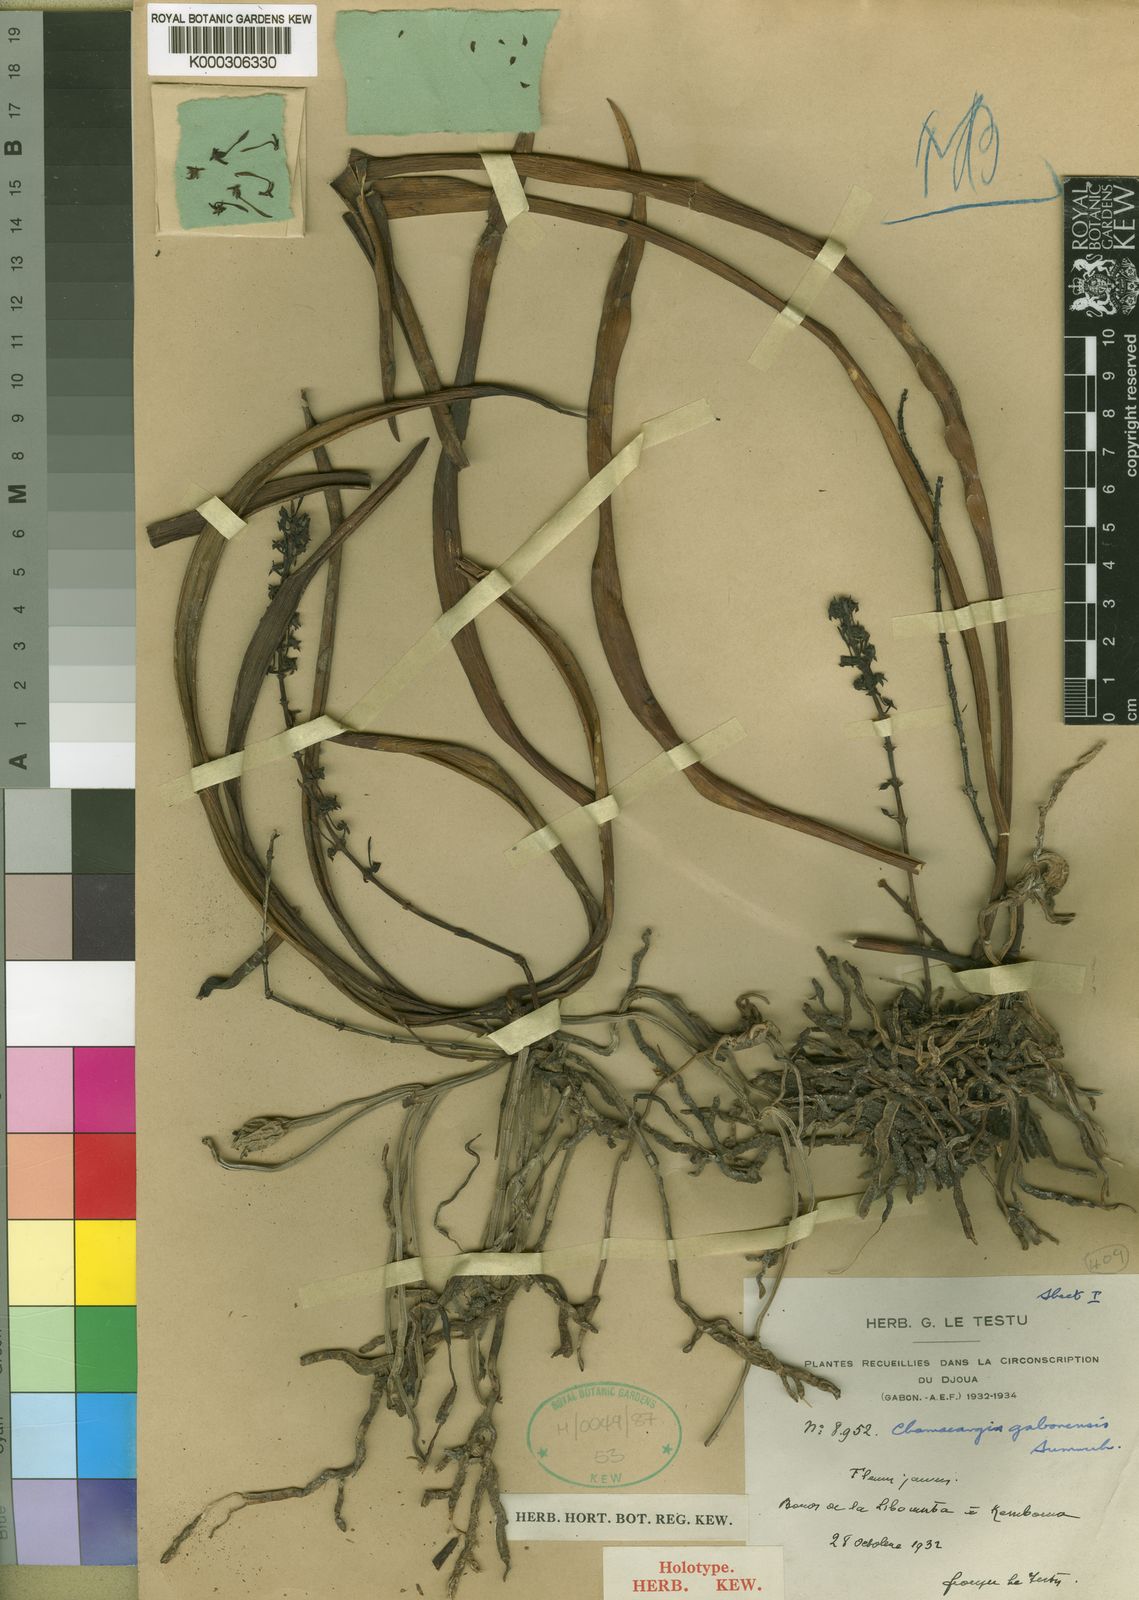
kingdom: Plantae
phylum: Tracheophyta
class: Liliopsida
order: Asparagales
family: Orchidaceae
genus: Diaphananthe
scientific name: Diaphananthe gabonensis
